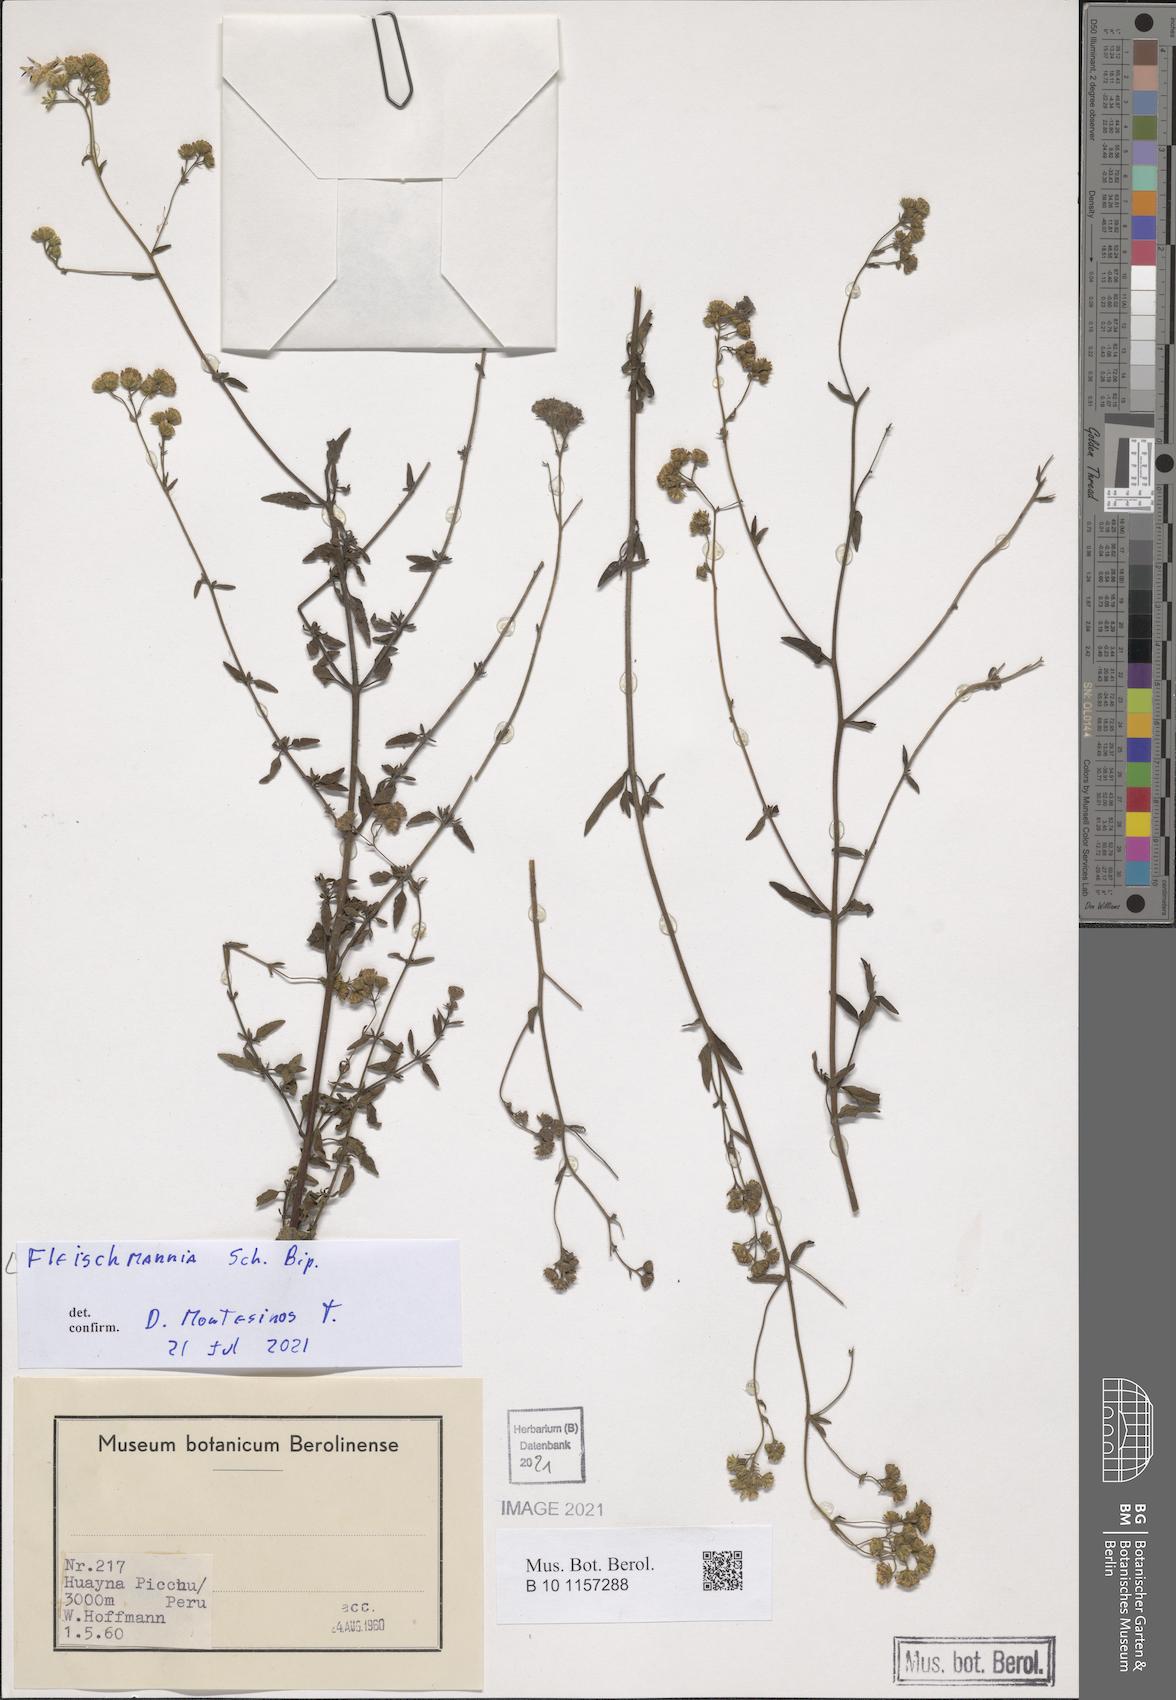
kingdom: Plantae
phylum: Tracheophyta
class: Magnoliopsida
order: Asterales
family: Asteraceae
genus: Fleischmannia
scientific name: Fleischmannia
